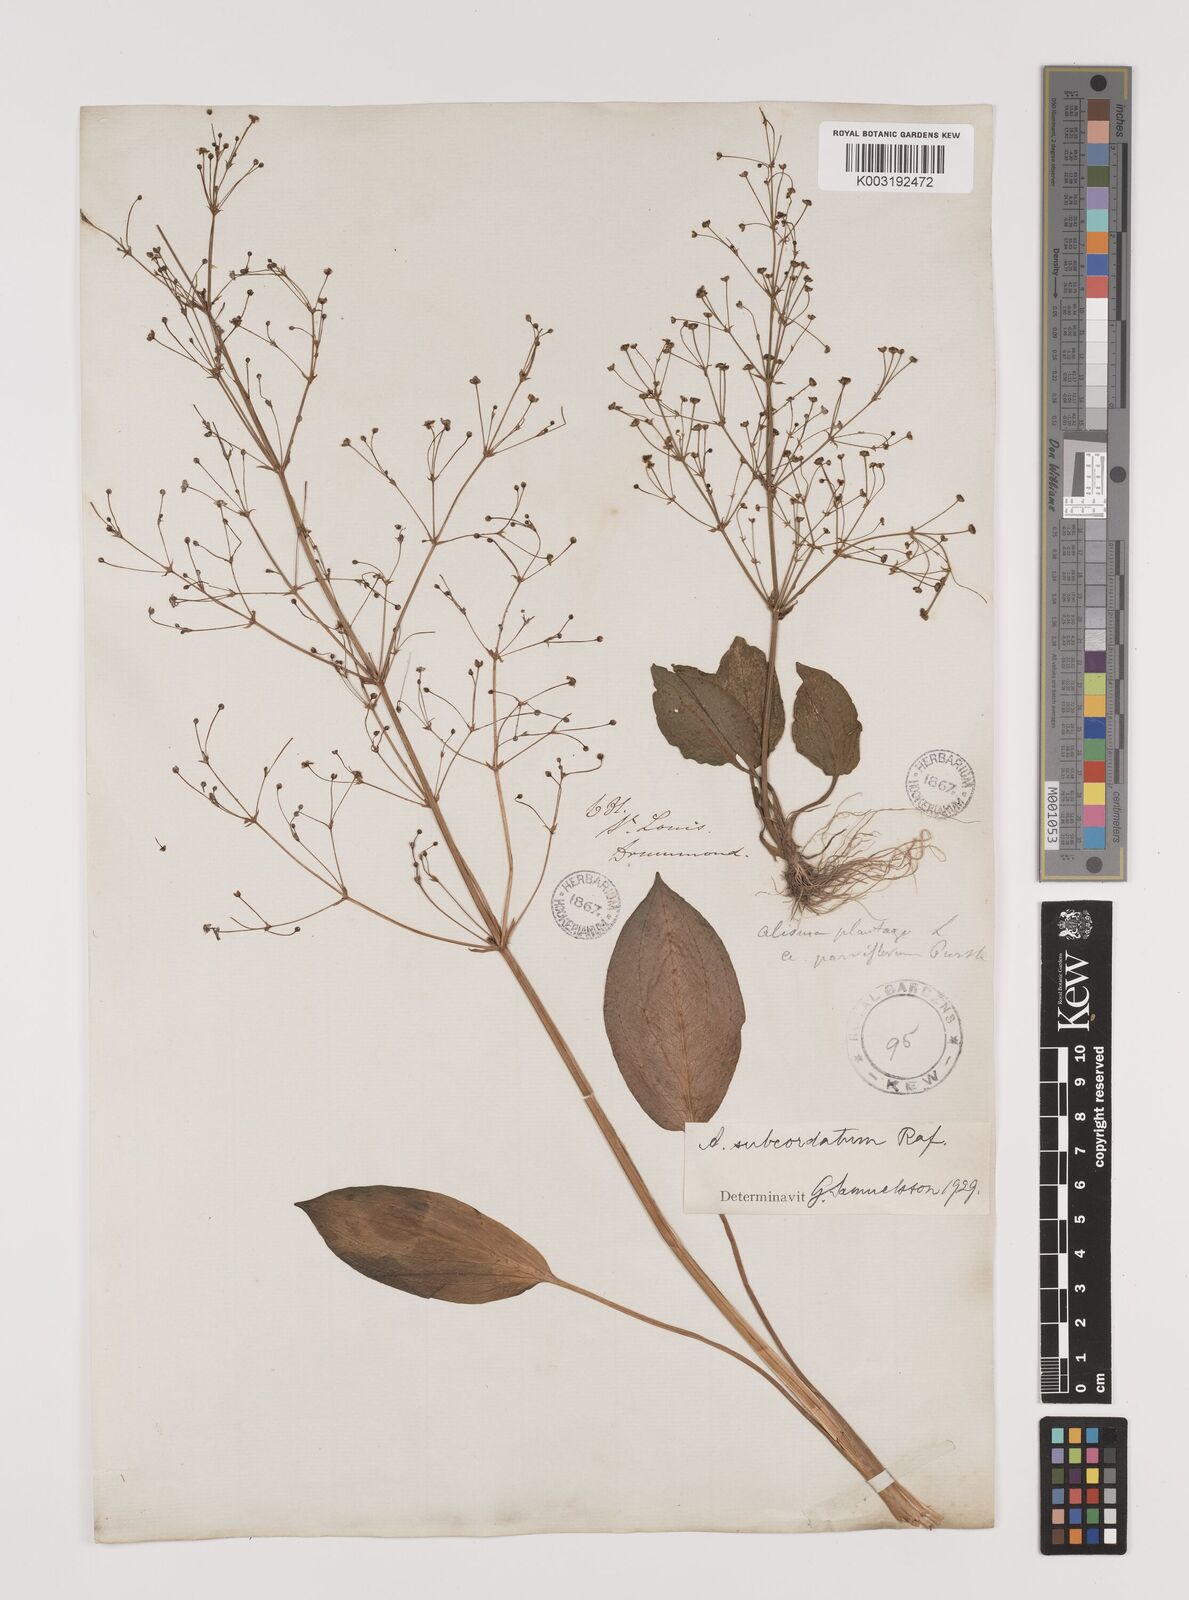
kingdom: Plantae
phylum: Tracheophyta
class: Liliopsida
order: Alismatales
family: Alismataceae
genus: Alisma
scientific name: Alisma subcordatum
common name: Southern water-plantain
